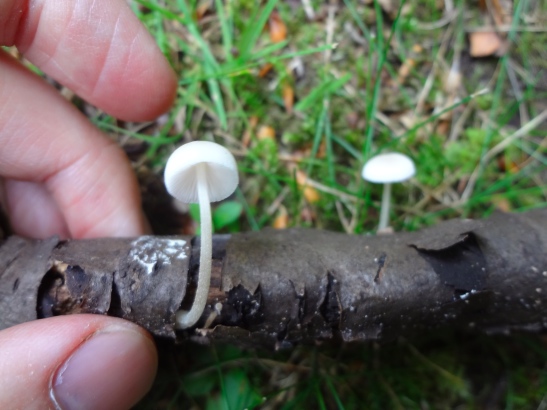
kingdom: Fungi
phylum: Basidiomycota
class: Agaricomycetes
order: Agaricales
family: Pluteaceae
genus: Pluteus
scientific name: Pluteus semibulbosus
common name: knoldet skærmhat
